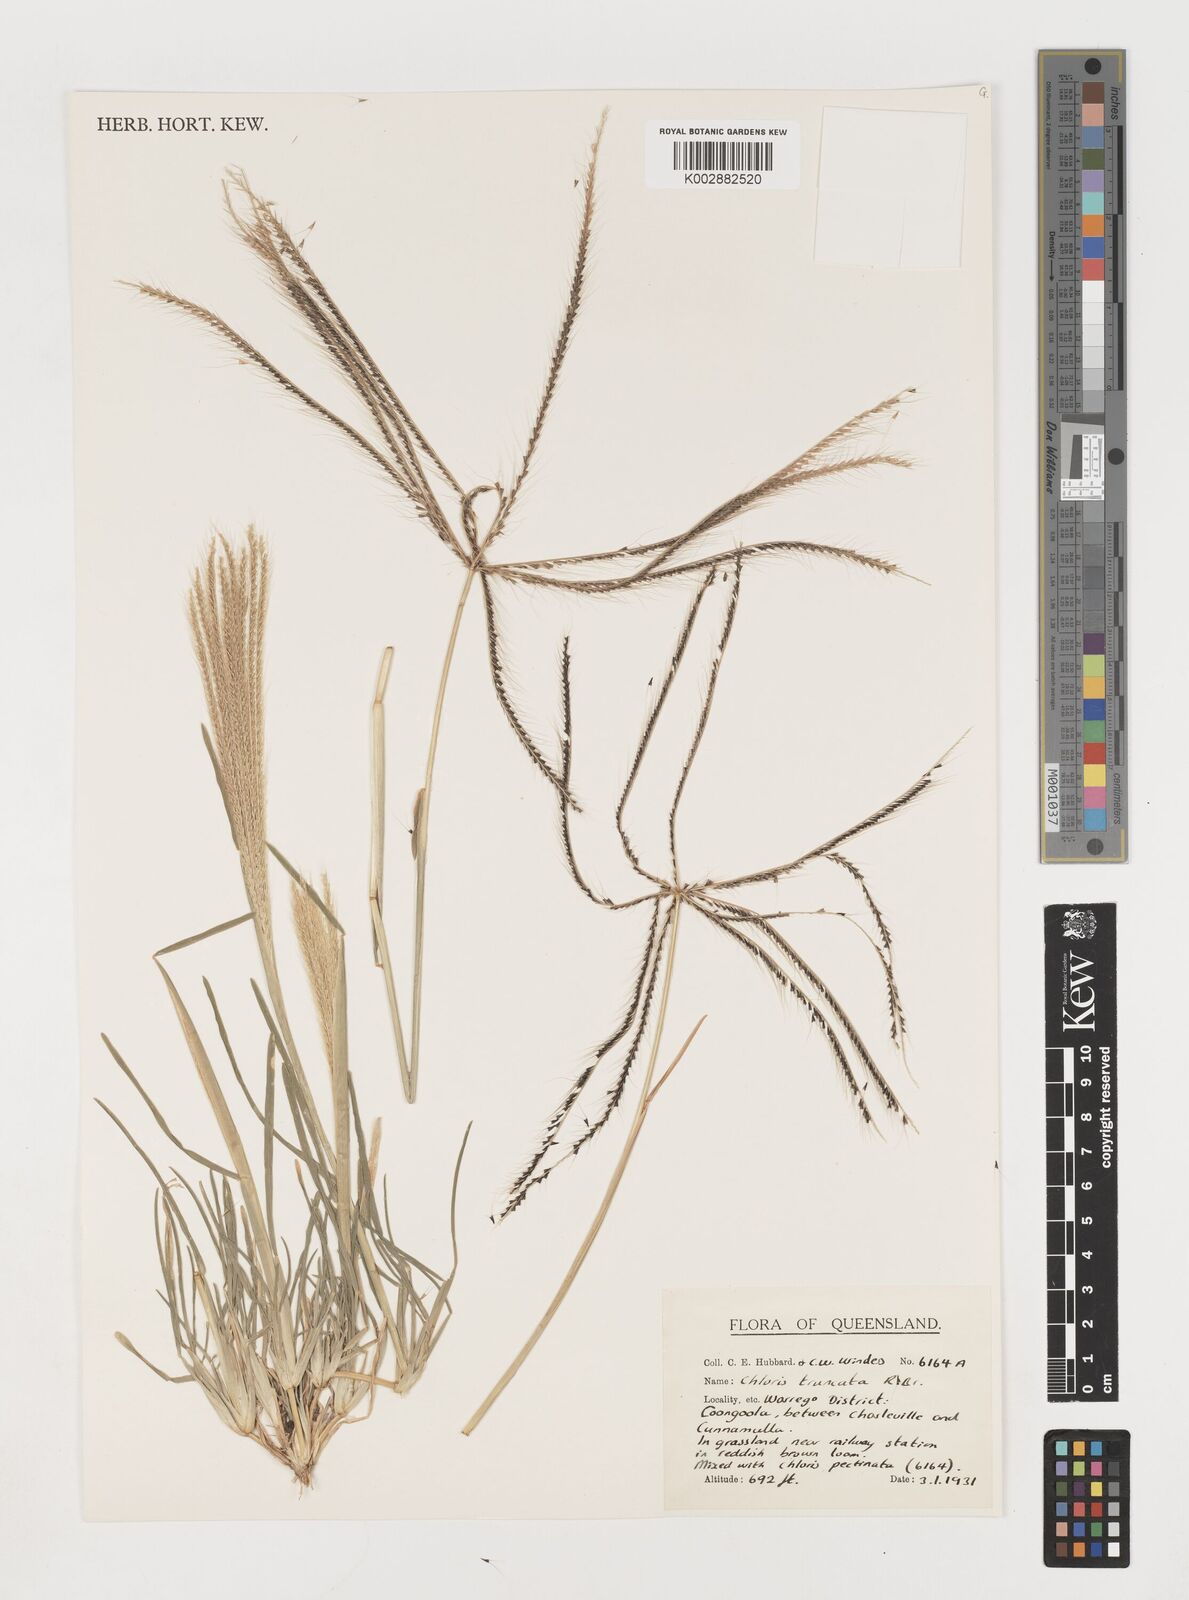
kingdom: Plantae
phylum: Tracheophyta
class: Liliopsida
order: Poales
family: Poaceae
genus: Chloris
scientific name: Chloris truncata
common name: Windmill-grass
